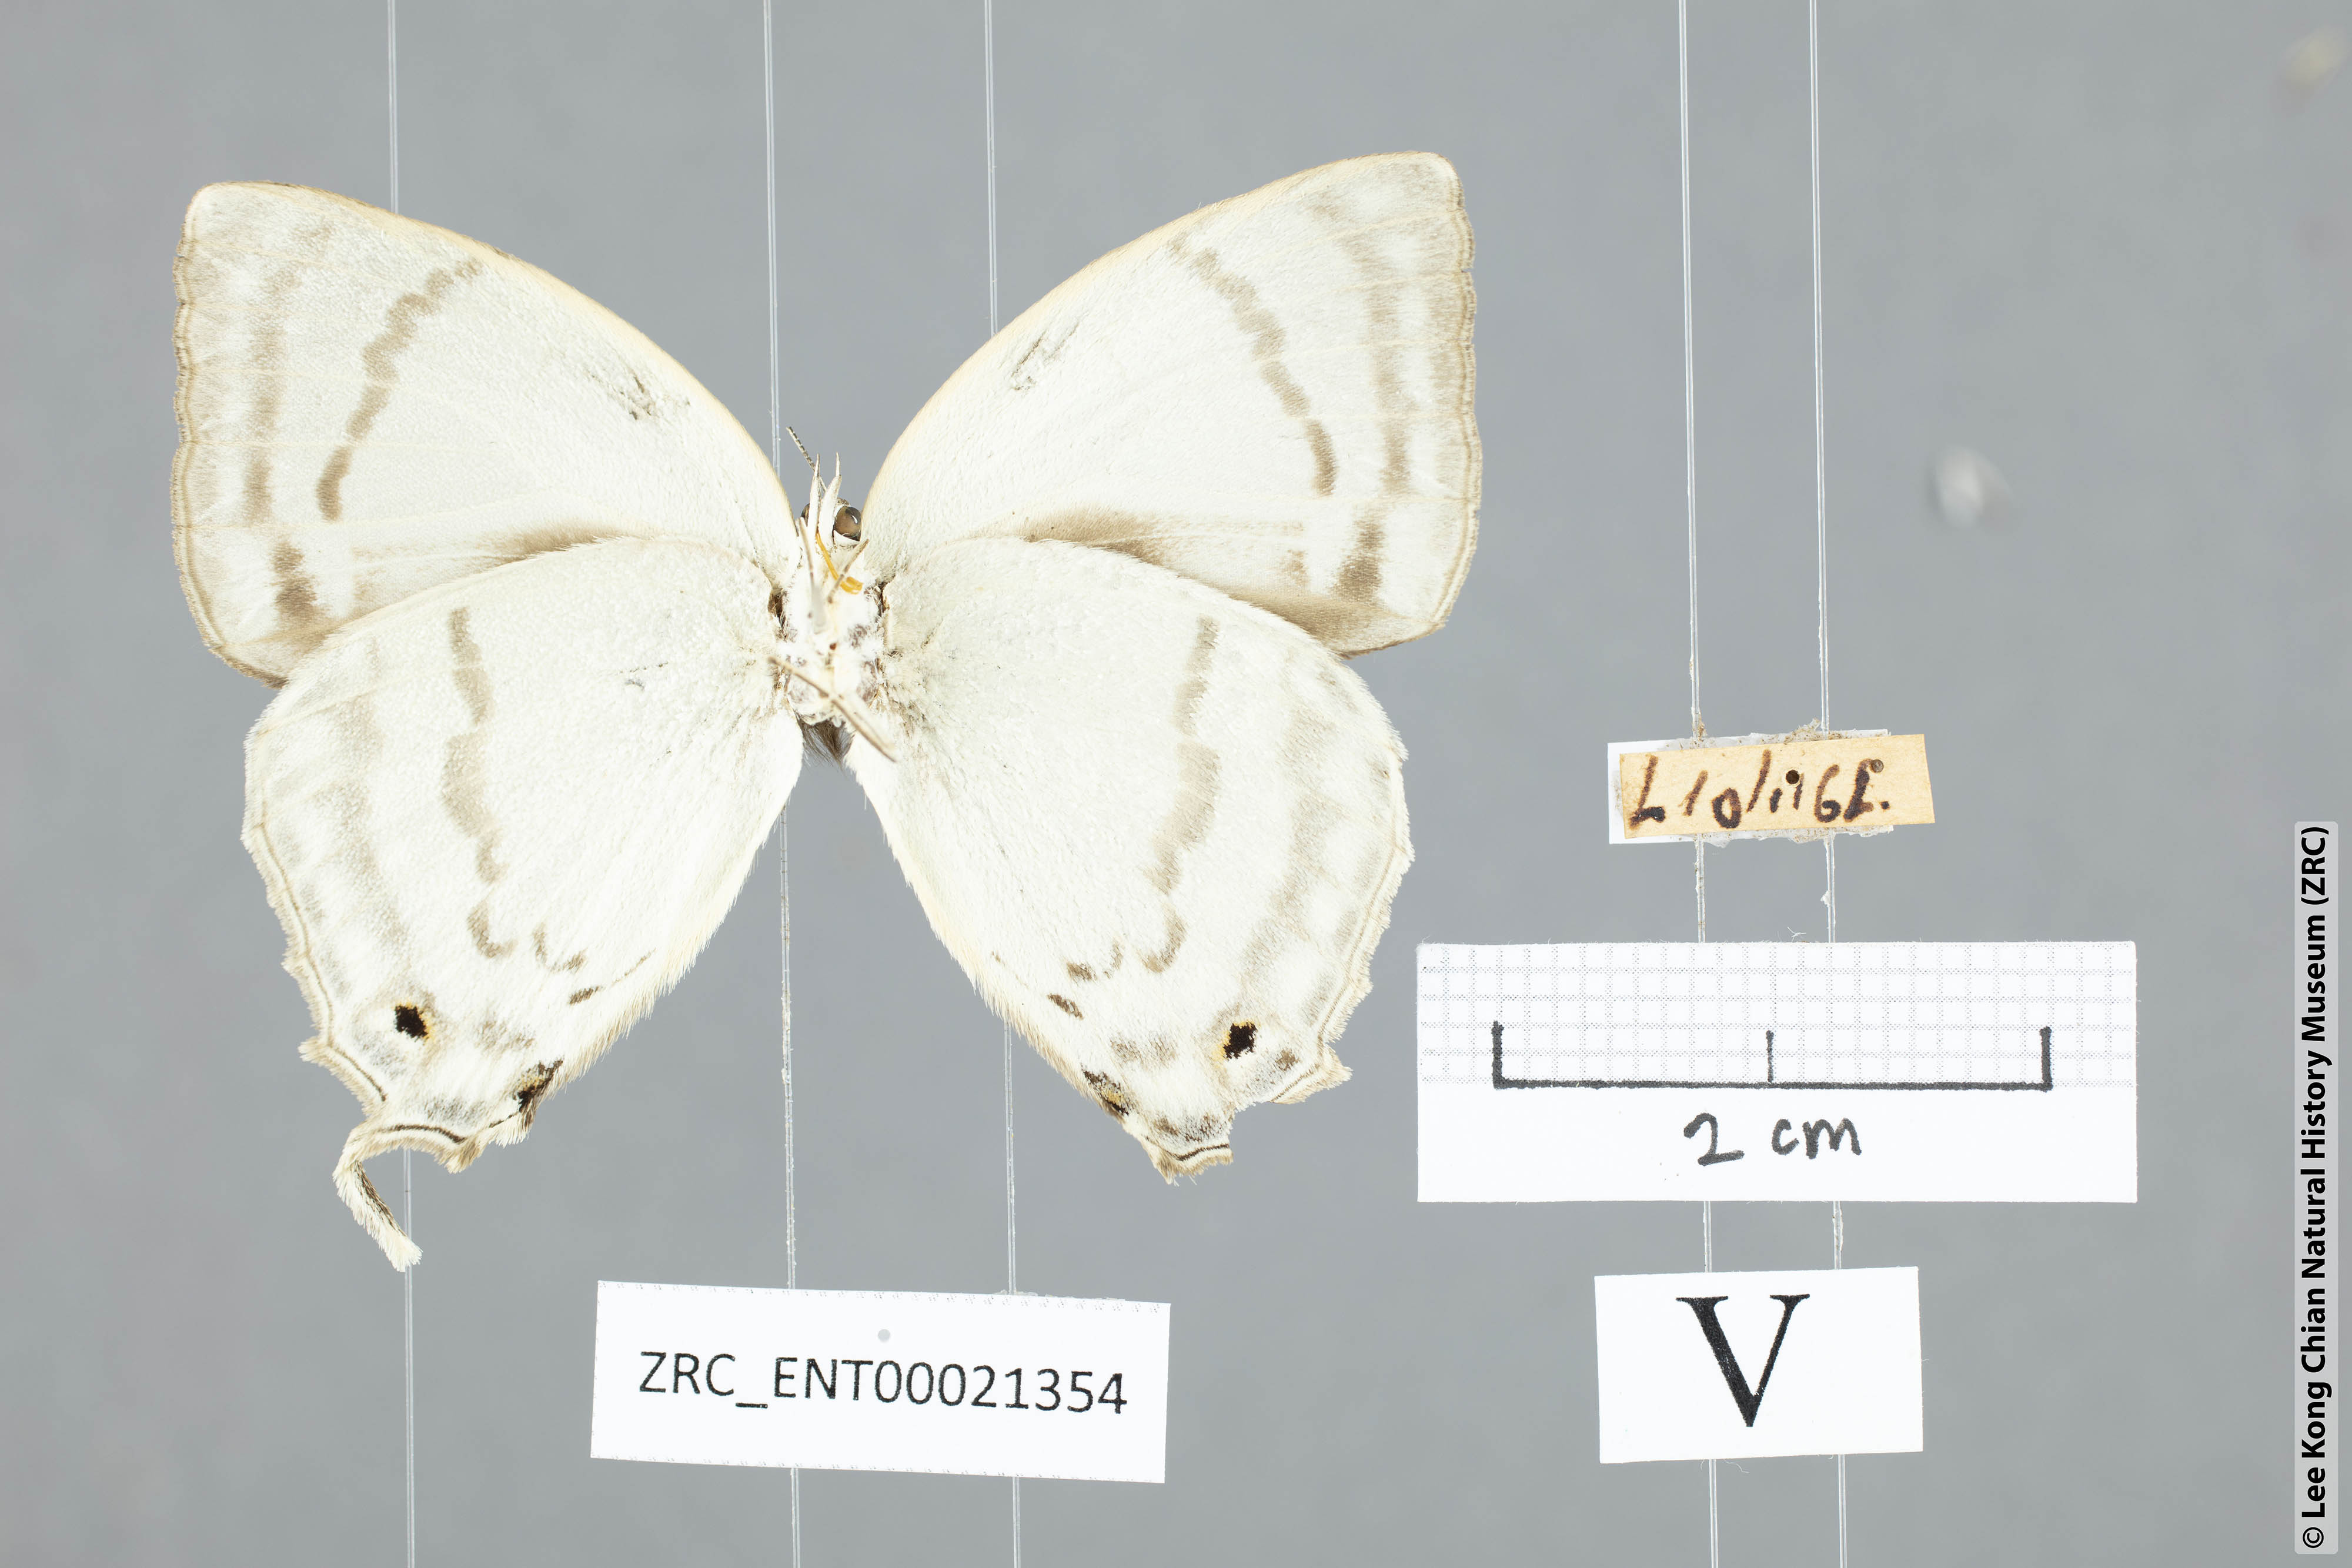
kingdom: Animalia
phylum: Arthropoda
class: Insecta
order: Lepidoptera
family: Lycaenidae
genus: Drina
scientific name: Drina donina
